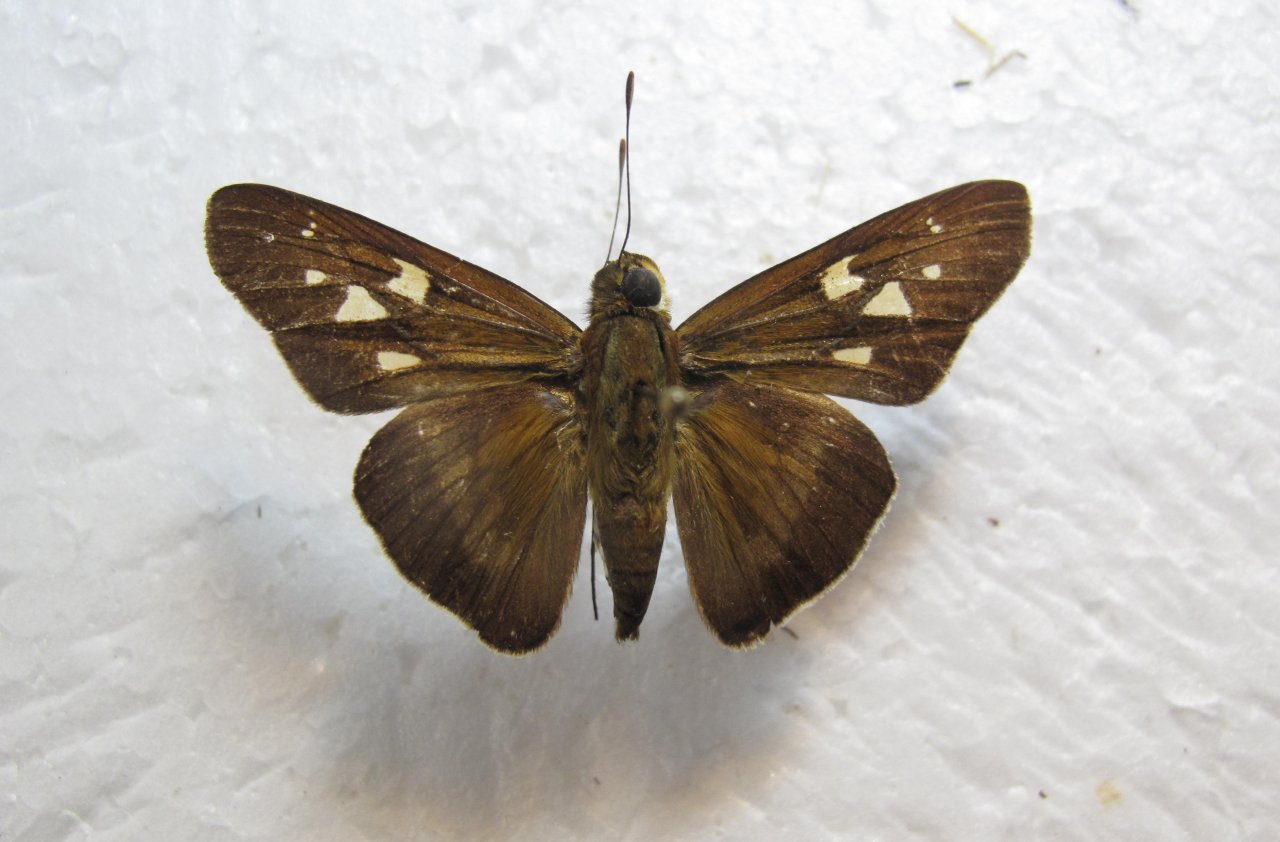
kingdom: Animalia
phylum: Arthropoda
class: Insecta
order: Lepidoptera
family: Hesperiidae
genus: Panoquina
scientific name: Panoquina evadnes
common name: Evadnes Skipper
